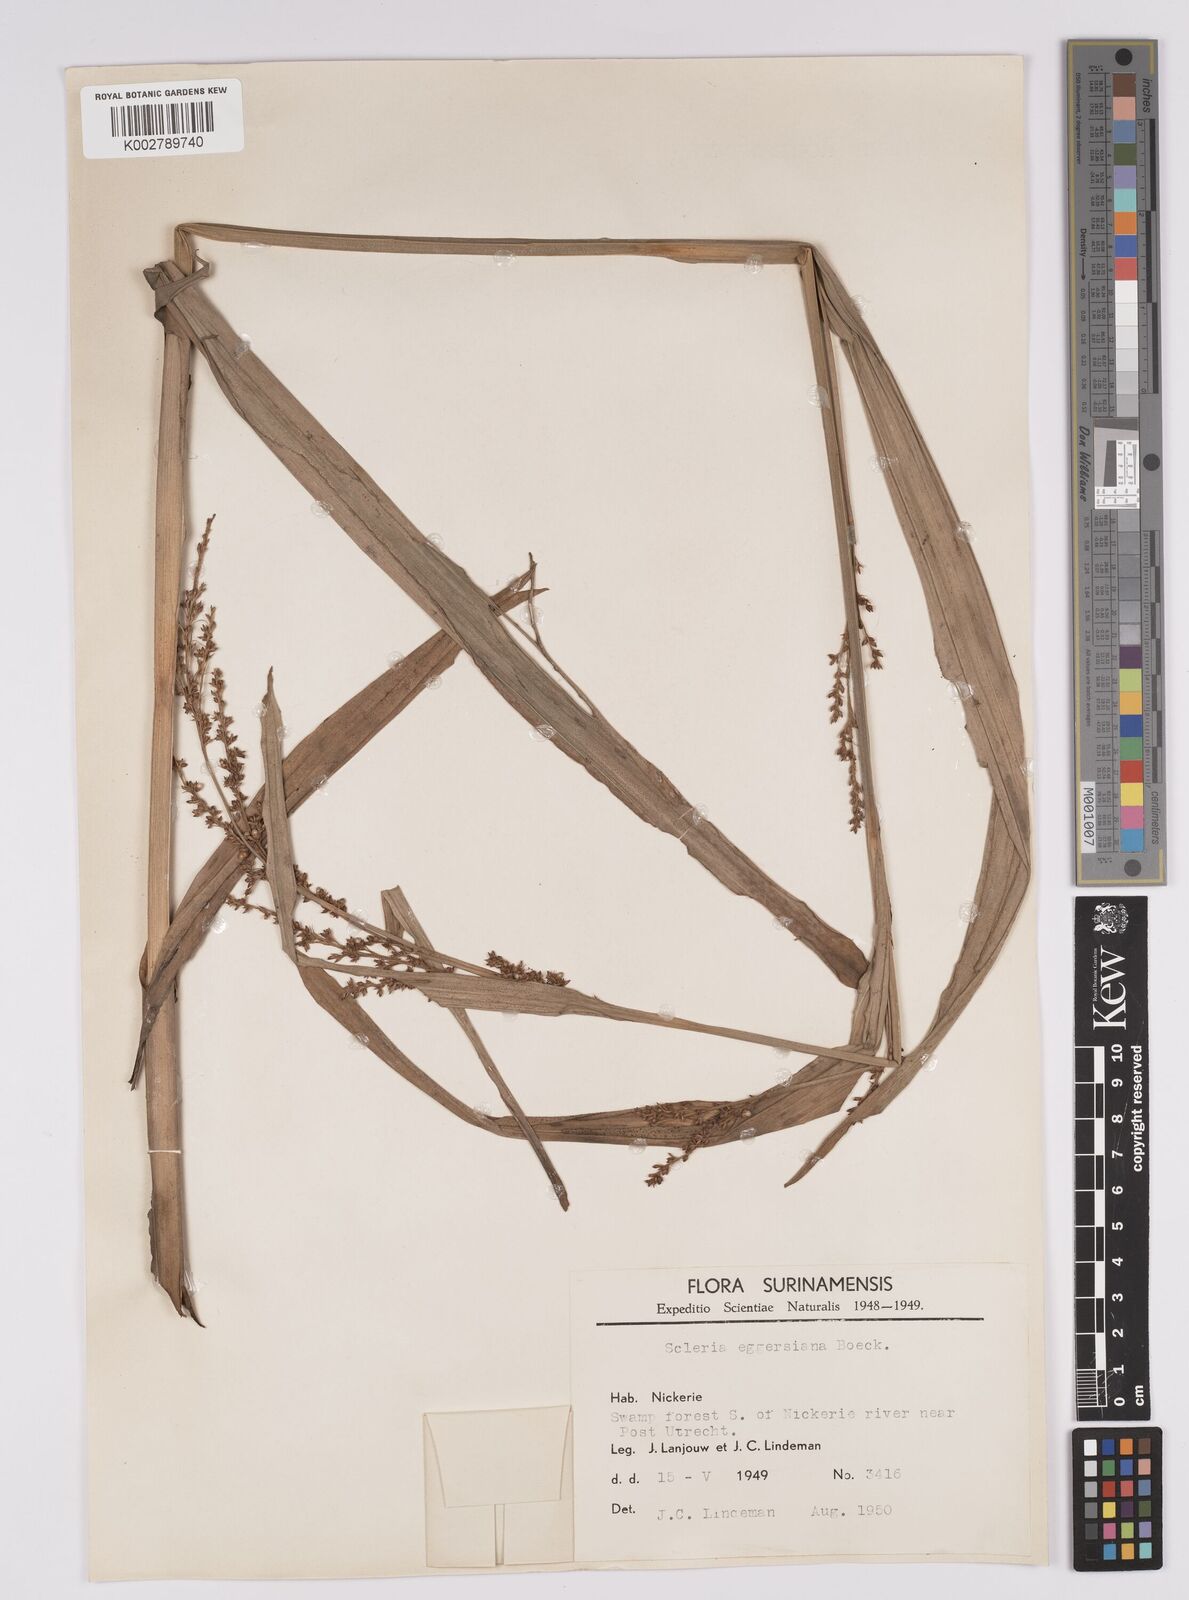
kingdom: Plantae
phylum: Tracheophyta
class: Liliopsida
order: Poales
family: Cyperaceae
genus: Scleria
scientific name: Scleria eggersiana
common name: Eggers' nutrush
